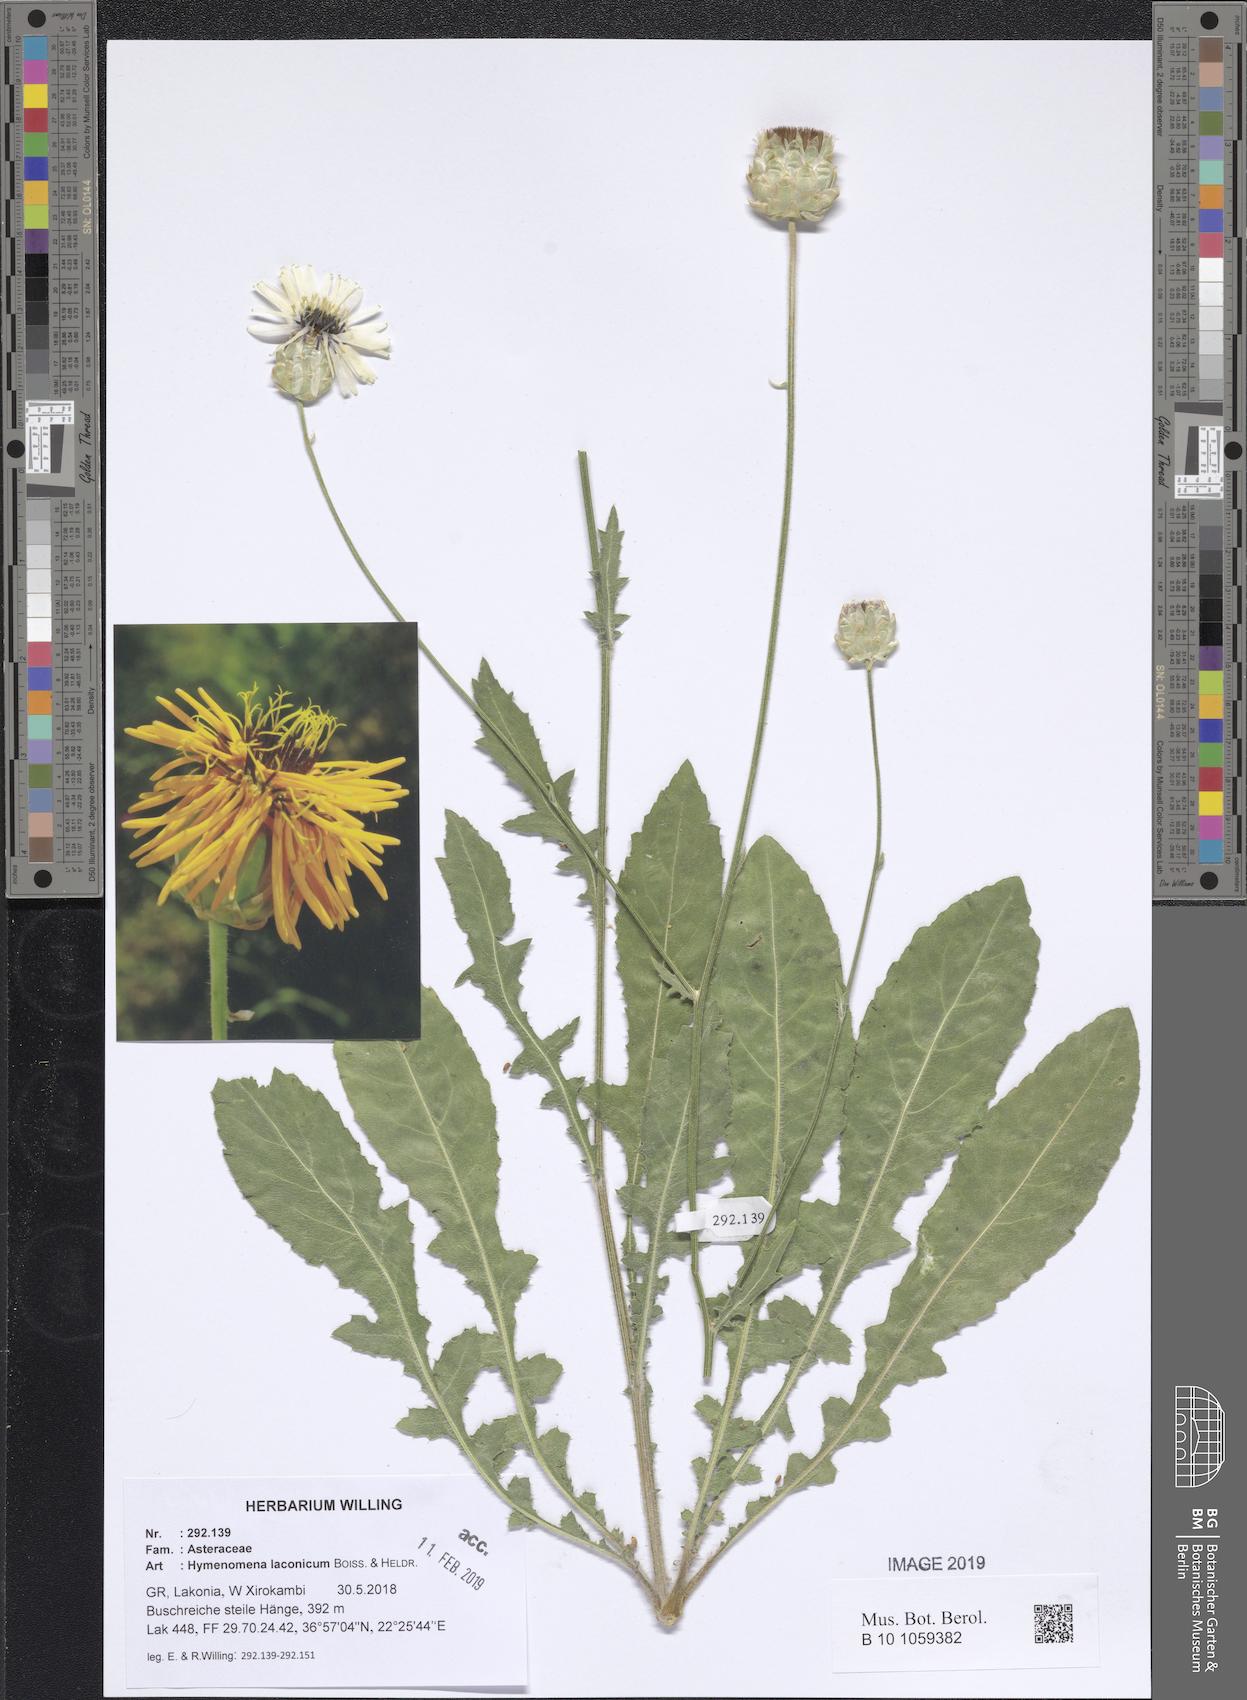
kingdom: Plantae
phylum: Tracheophyta
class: Magnoliopsida
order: Asterales
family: Asteraceae
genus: Hymenonema
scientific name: Hymenonema laconicum
